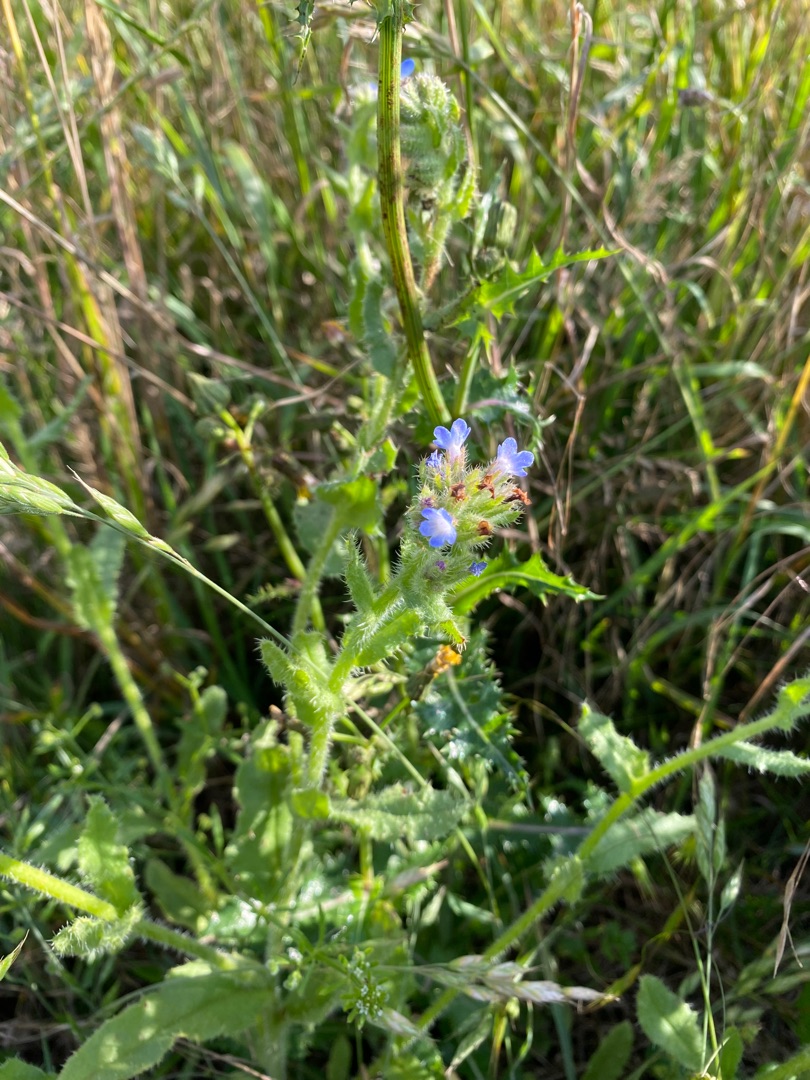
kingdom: Plantae
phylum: Tracheophyta
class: Magnoliopsida
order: Boraginales
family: Boraginaceae
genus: Lycopsis
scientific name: Lycopsis arvensis
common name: Krumhals
